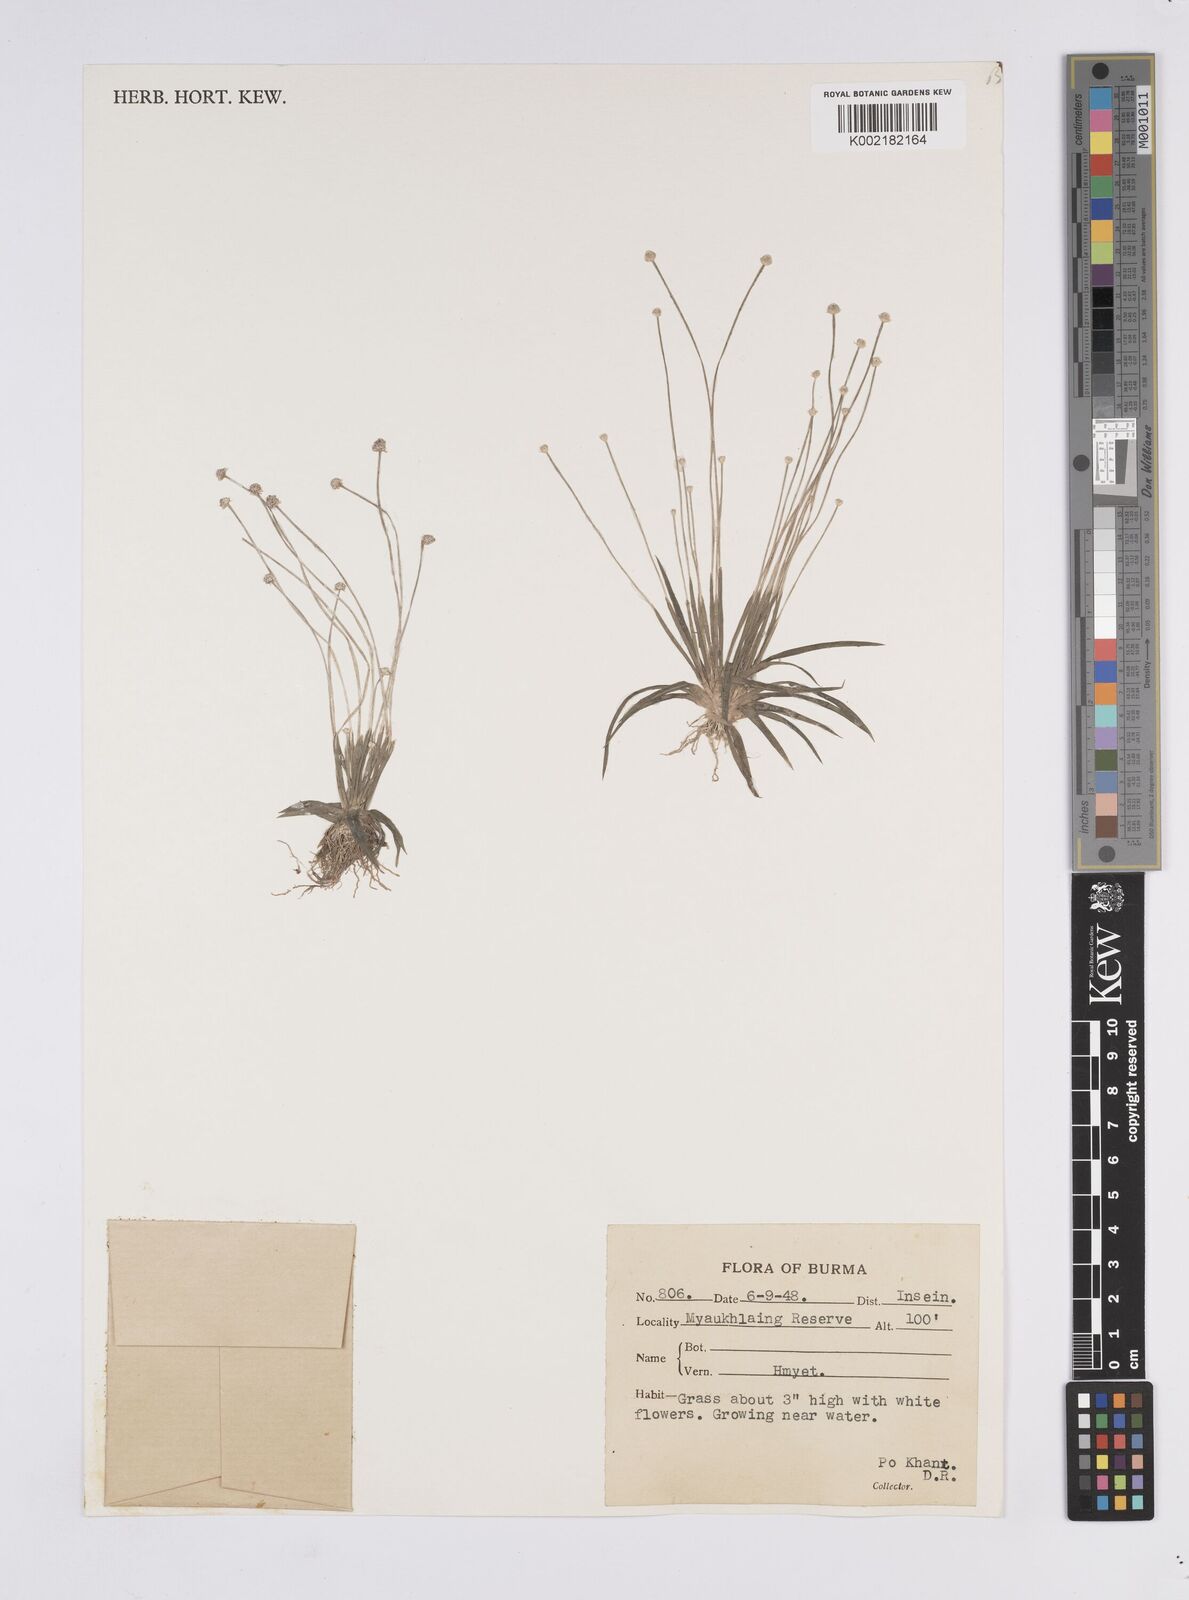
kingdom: Plantae
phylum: Tracheophyta
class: Liliopsida
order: Poales
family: Eriocaulaceae
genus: Eriocaulon
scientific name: Eriocaulon
